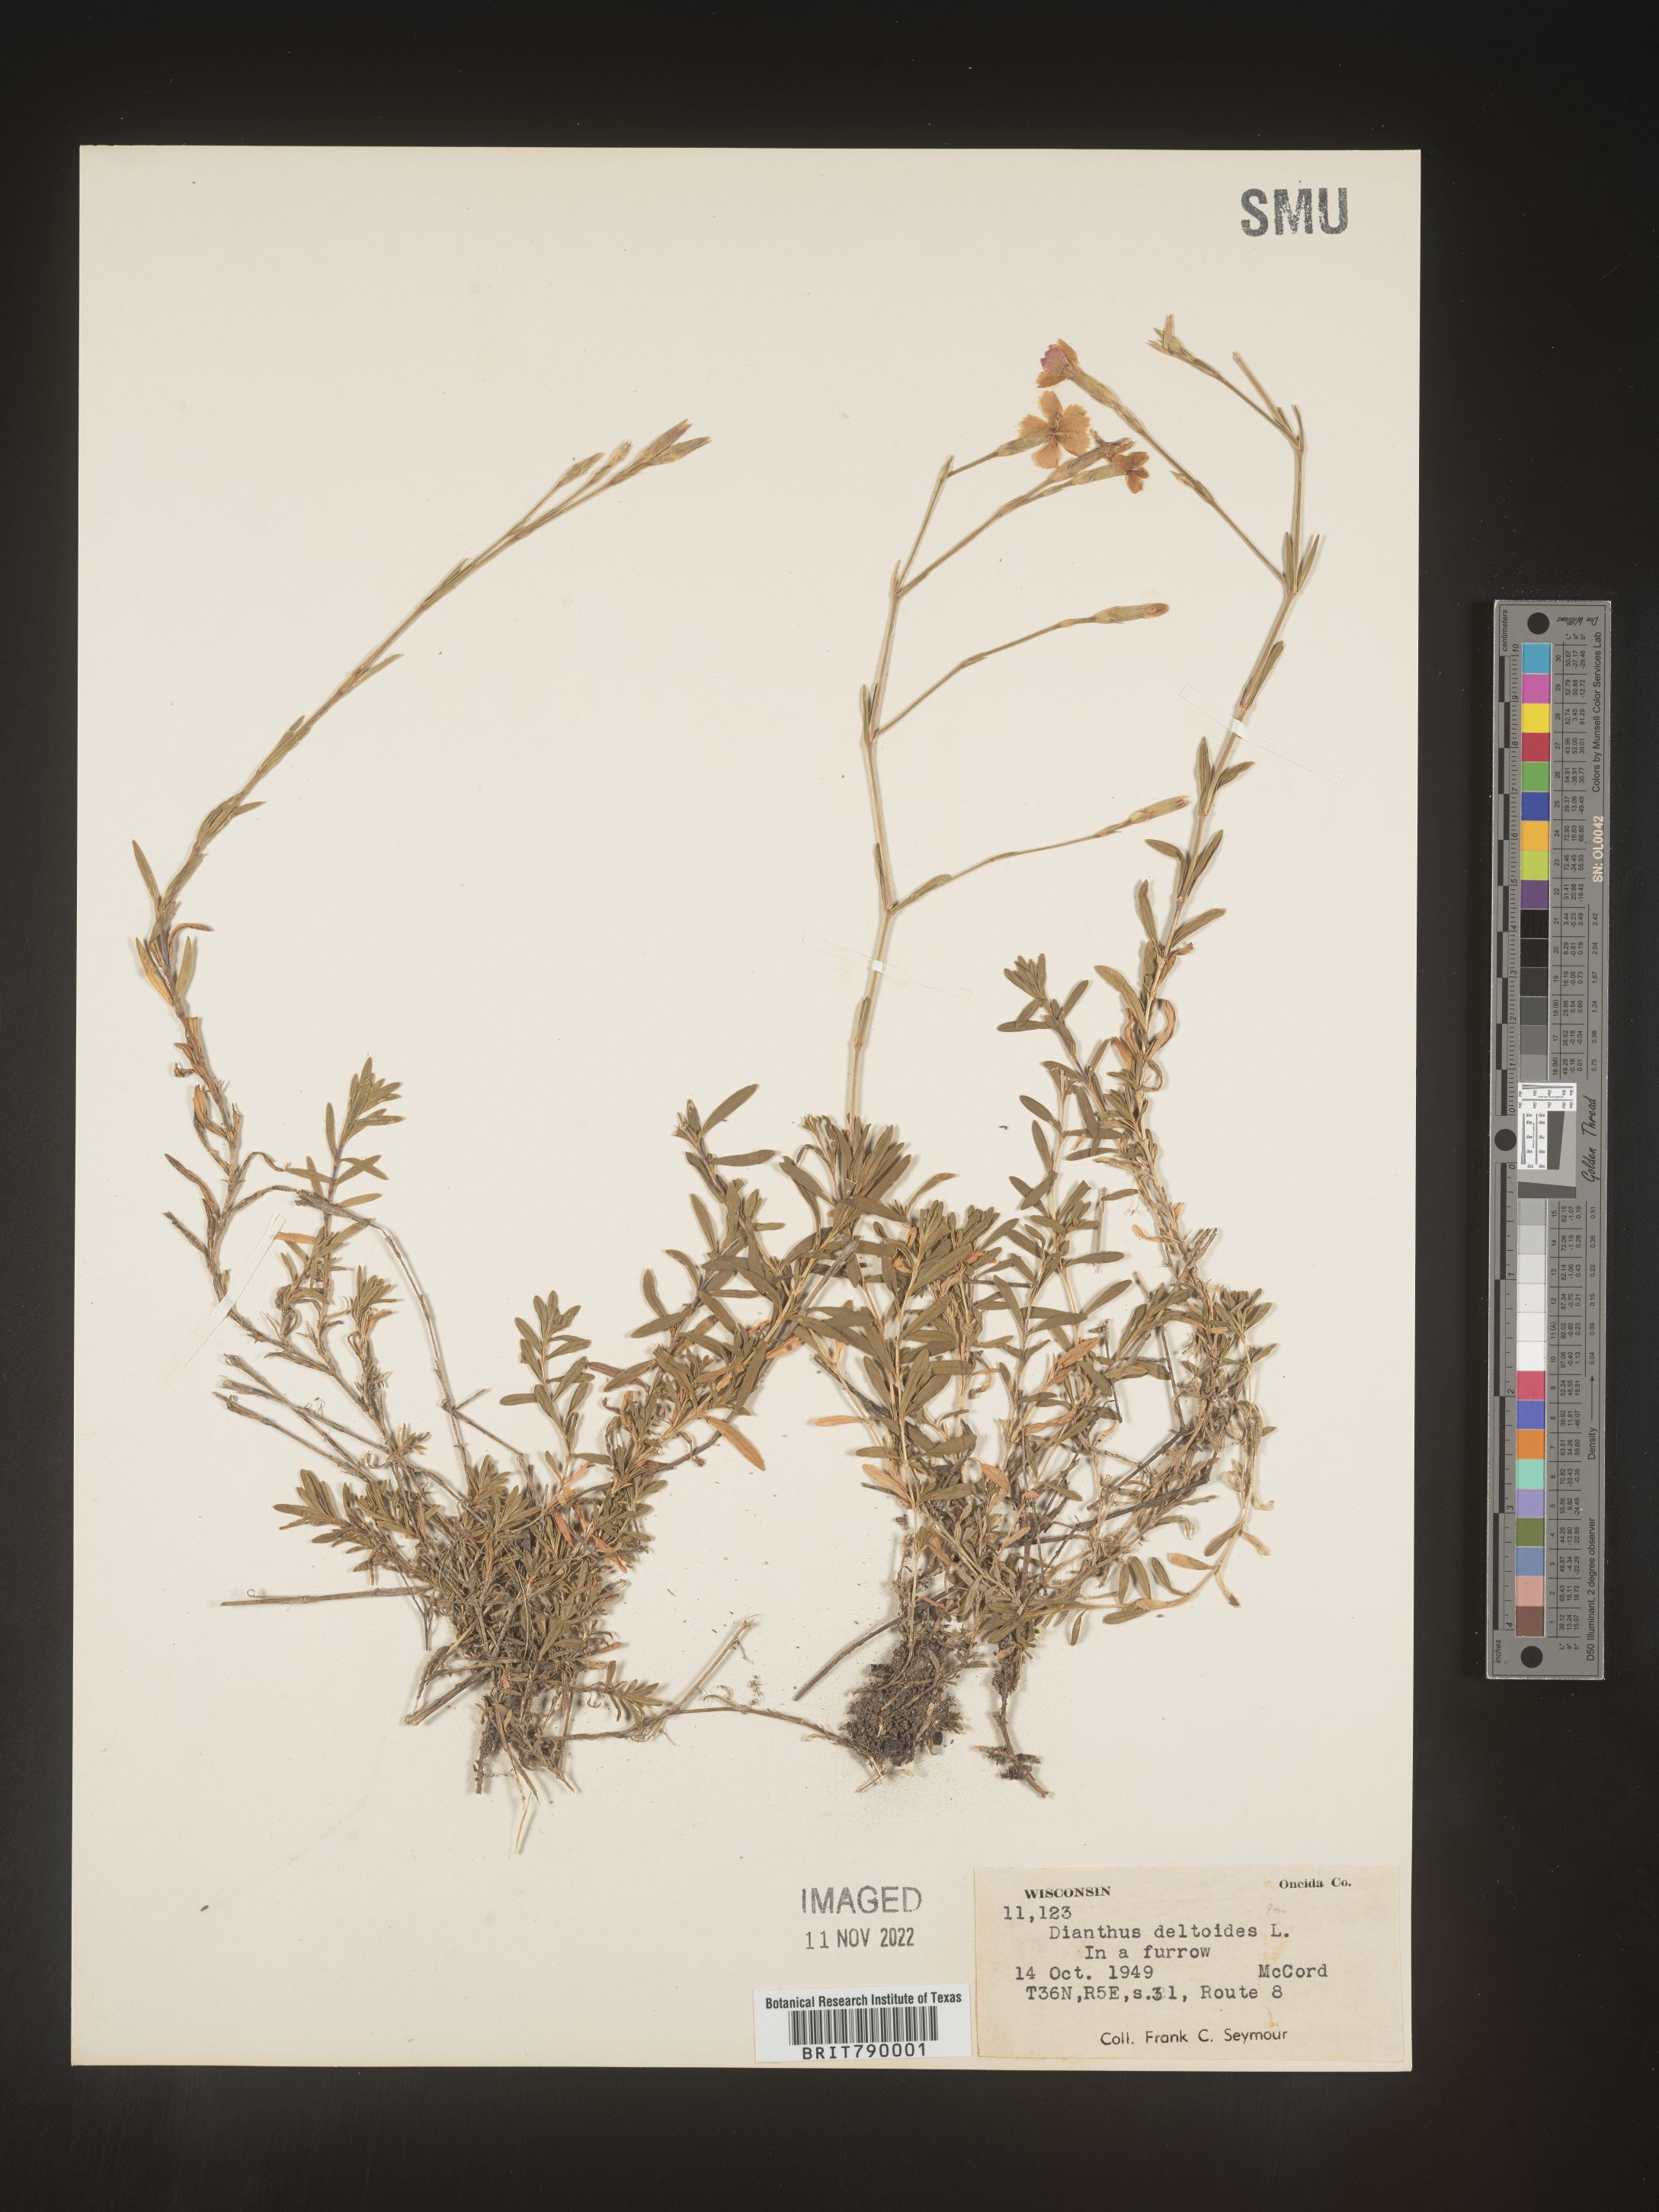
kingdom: Plantae
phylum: Tracheophyta
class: Magnoliopsida
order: Caryophyllales
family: Caryophyllaceae
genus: Dianthus
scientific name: Dianthus deltoides
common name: Maiden pink
